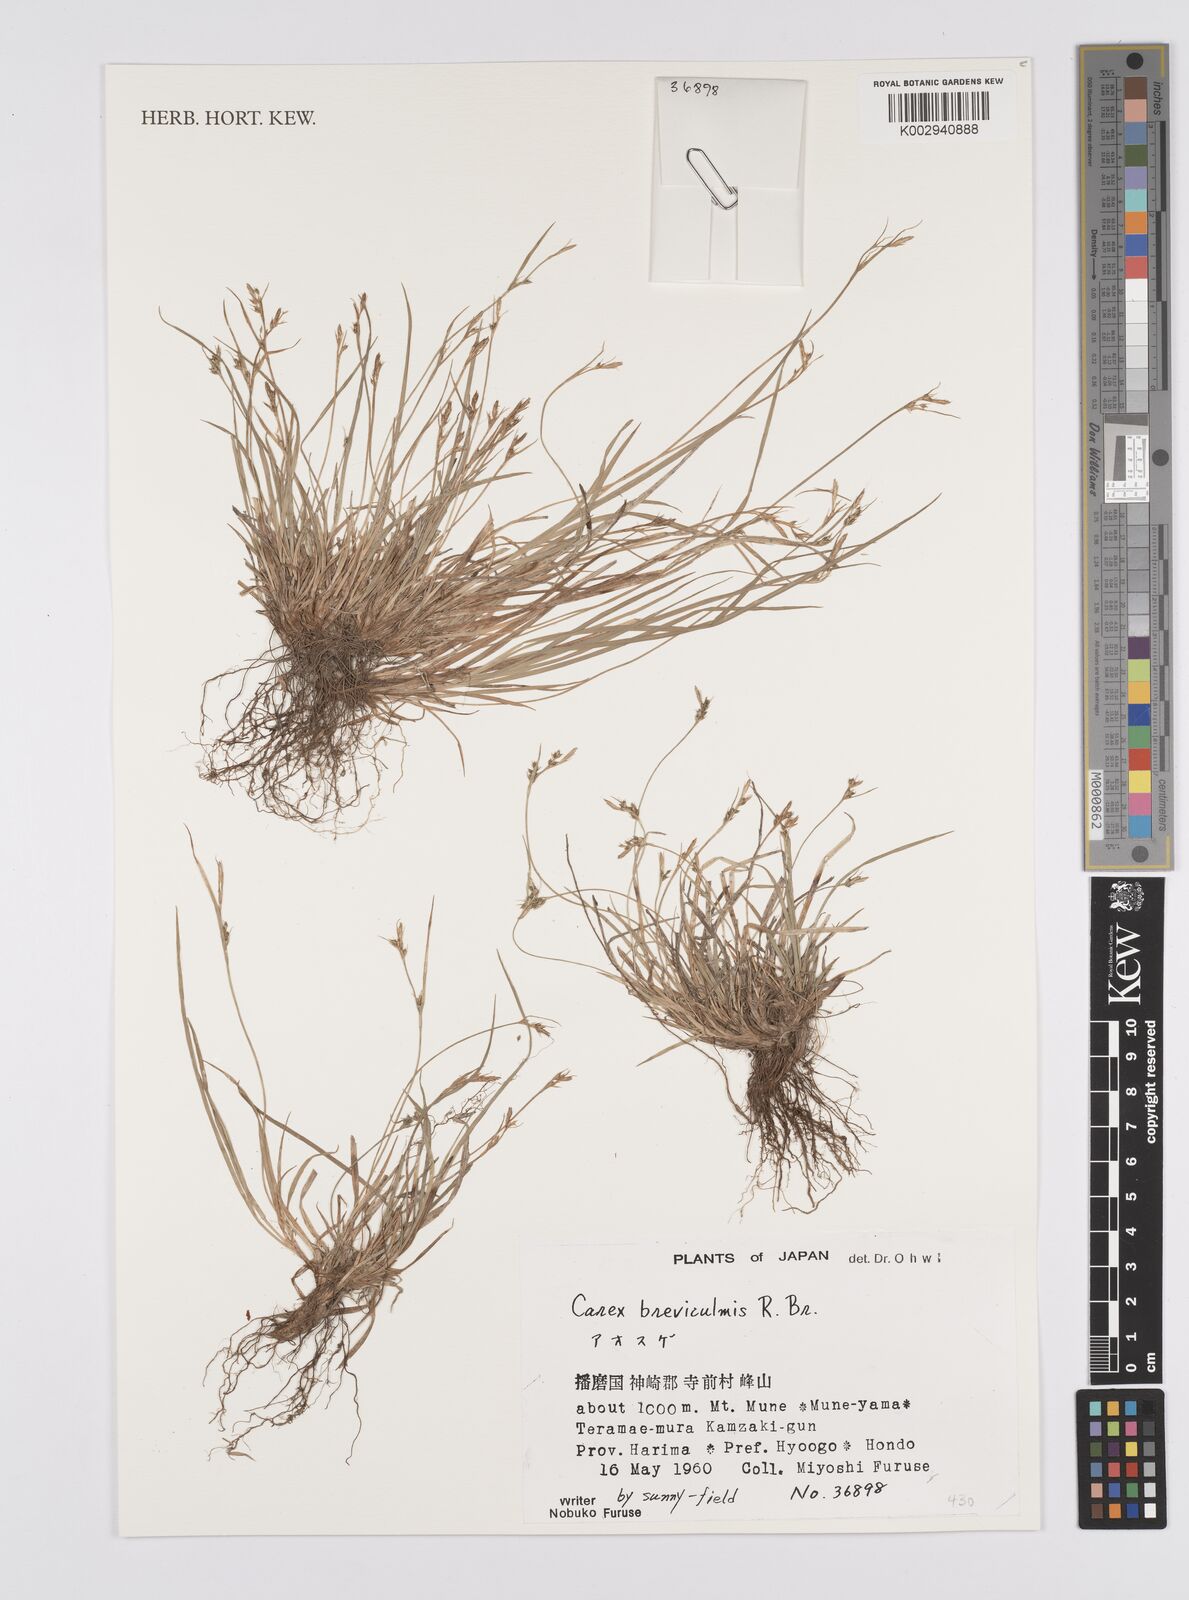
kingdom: Plantae
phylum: Tracheophyta
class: Liliopsida
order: Poales
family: Cyperaceae
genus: Carex
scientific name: Carex breviculmis
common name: Asian shortstem sedge
